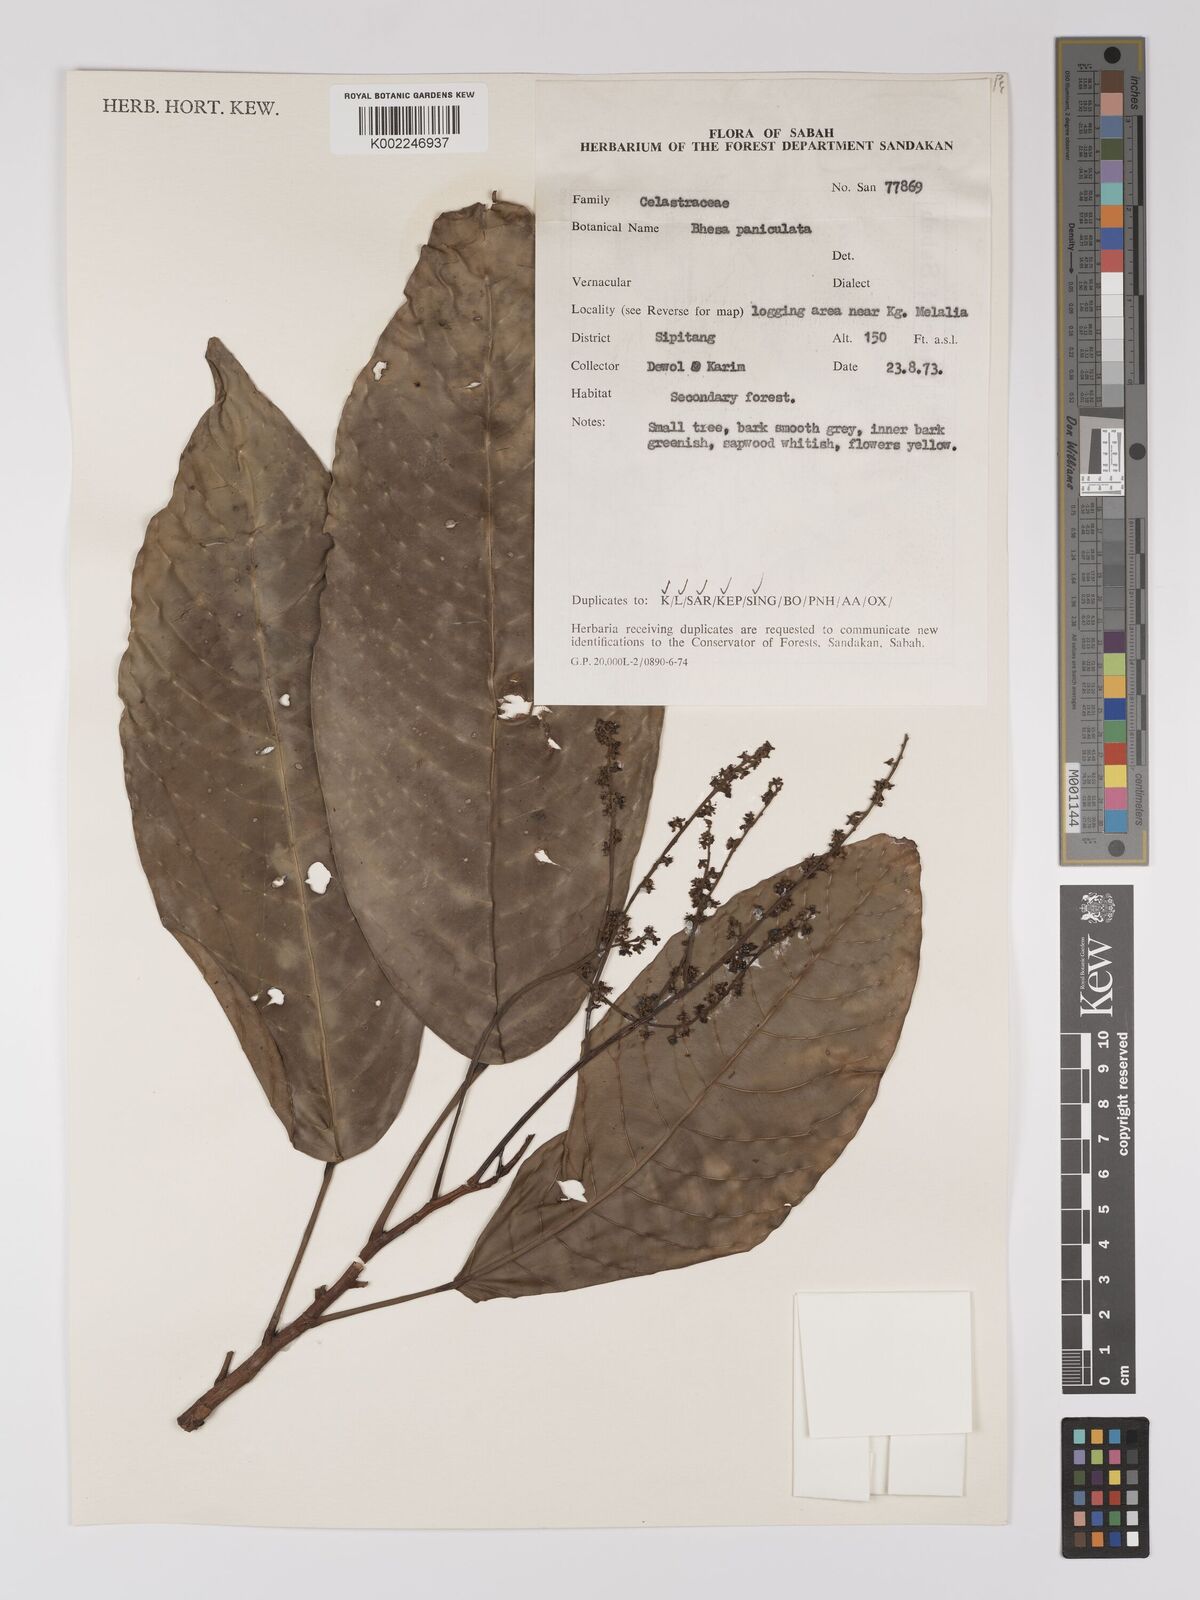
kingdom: Plantae
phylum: Tracheophyta
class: Magnoliopsida
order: Malpighiales
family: Centroplacaceae
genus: Bhesa
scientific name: Bhesa paniculata
